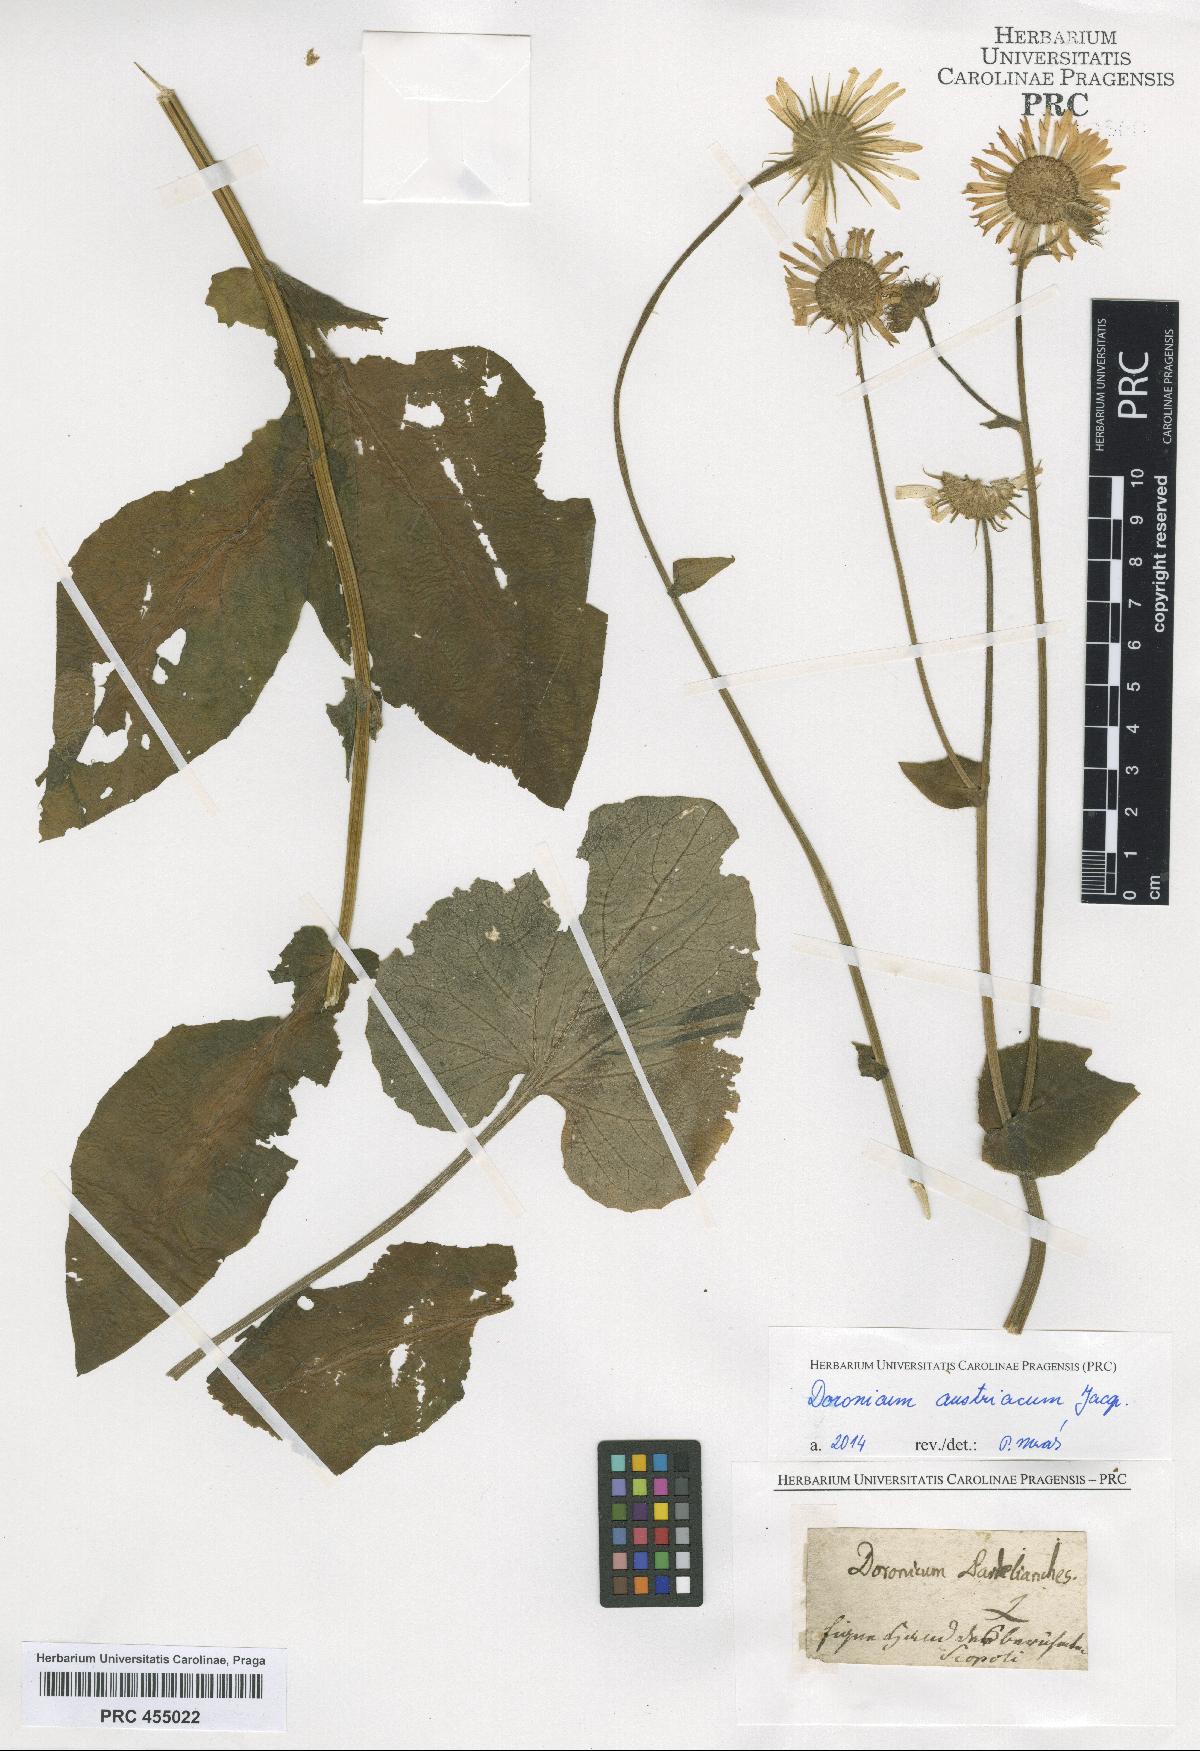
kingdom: Plantae
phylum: Tracheophyta
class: Magnoliopsida
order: Asterales
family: Asteraceae
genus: Doronicum
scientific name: Doronicum austriacum
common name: Austrian leopard's-bane
